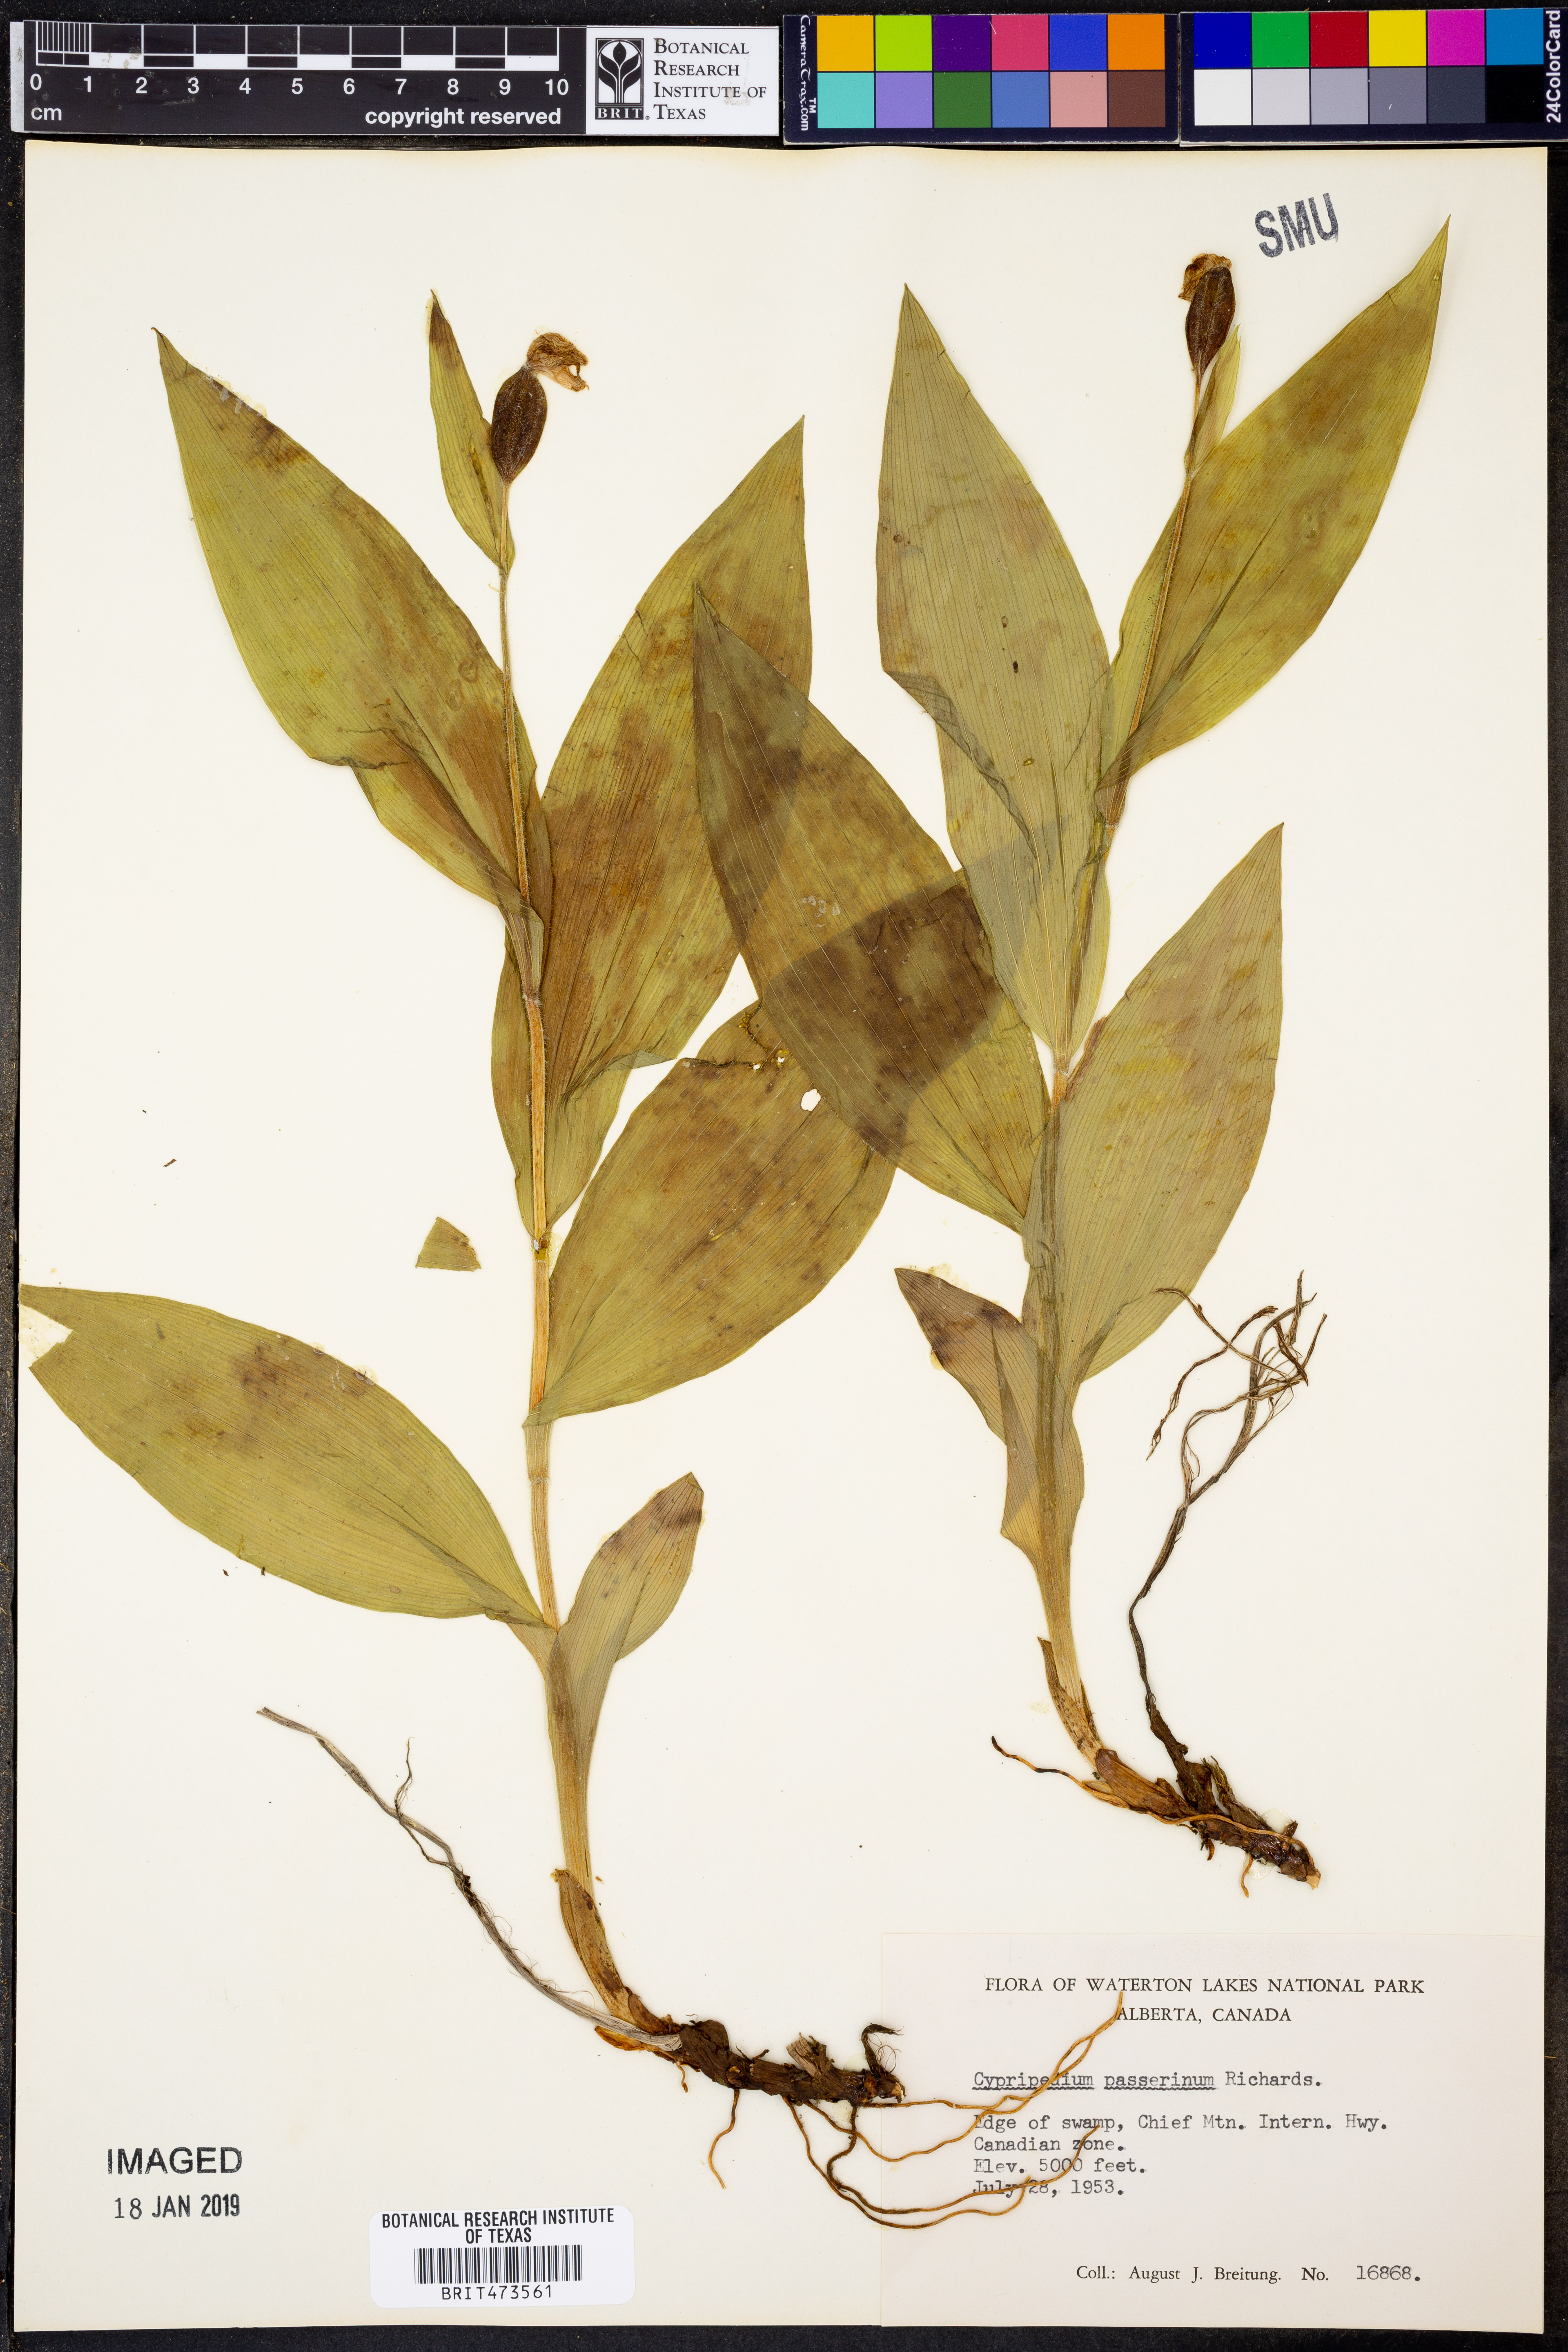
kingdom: Plantae
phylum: Tracheophyta
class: Liliopsida
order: Asparagales
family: Orchidaceae
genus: Cypripedium
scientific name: Cypripedium passerinum
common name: Sparrow's-egg lady's-slipper
